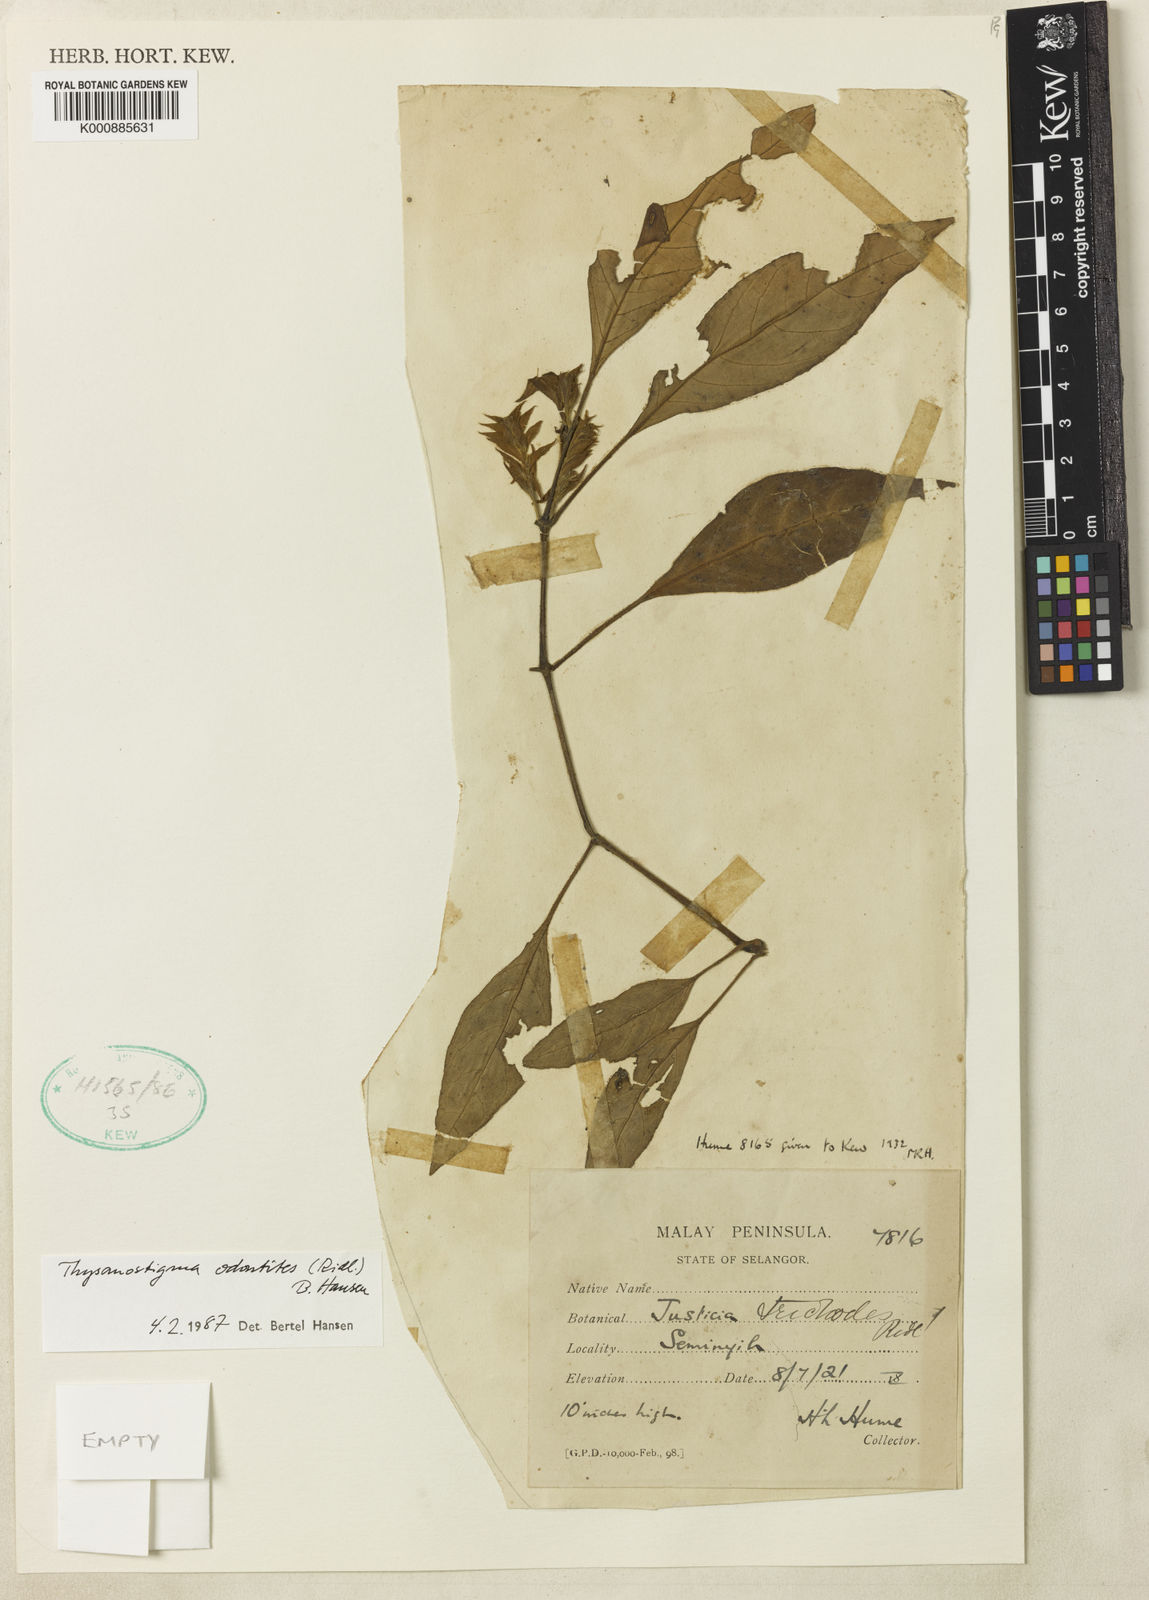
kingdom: Plantae
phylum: Tracheophyta
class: Magnoliopsida
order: Lamiales
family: Acanthaceae
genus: Thysanostigma
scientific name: Thysanostigma odontites
